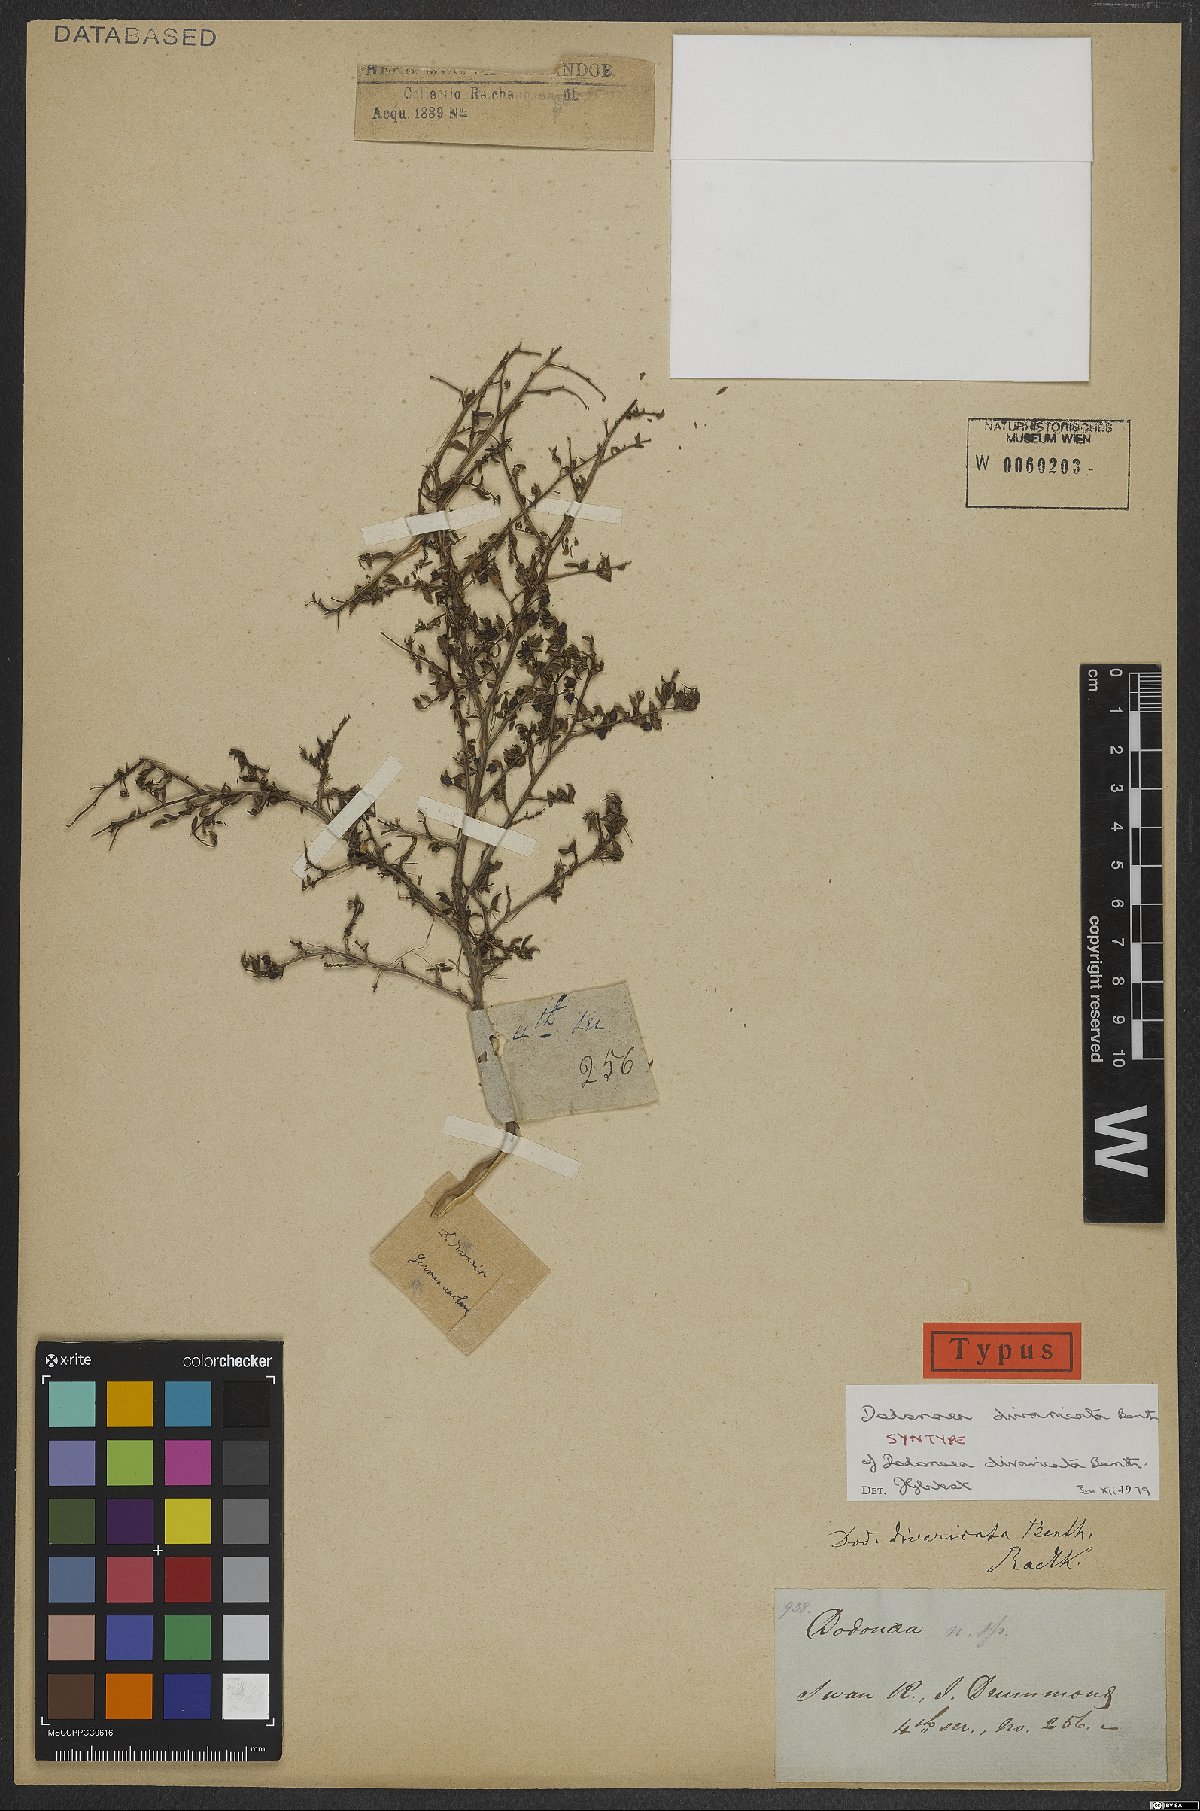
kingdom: Plantae
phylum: Tracheophyta
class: Magnoliopsida
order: Sapindales
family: Sapindaceae
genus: Dodonaea
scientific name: Dodonaea divaricata
